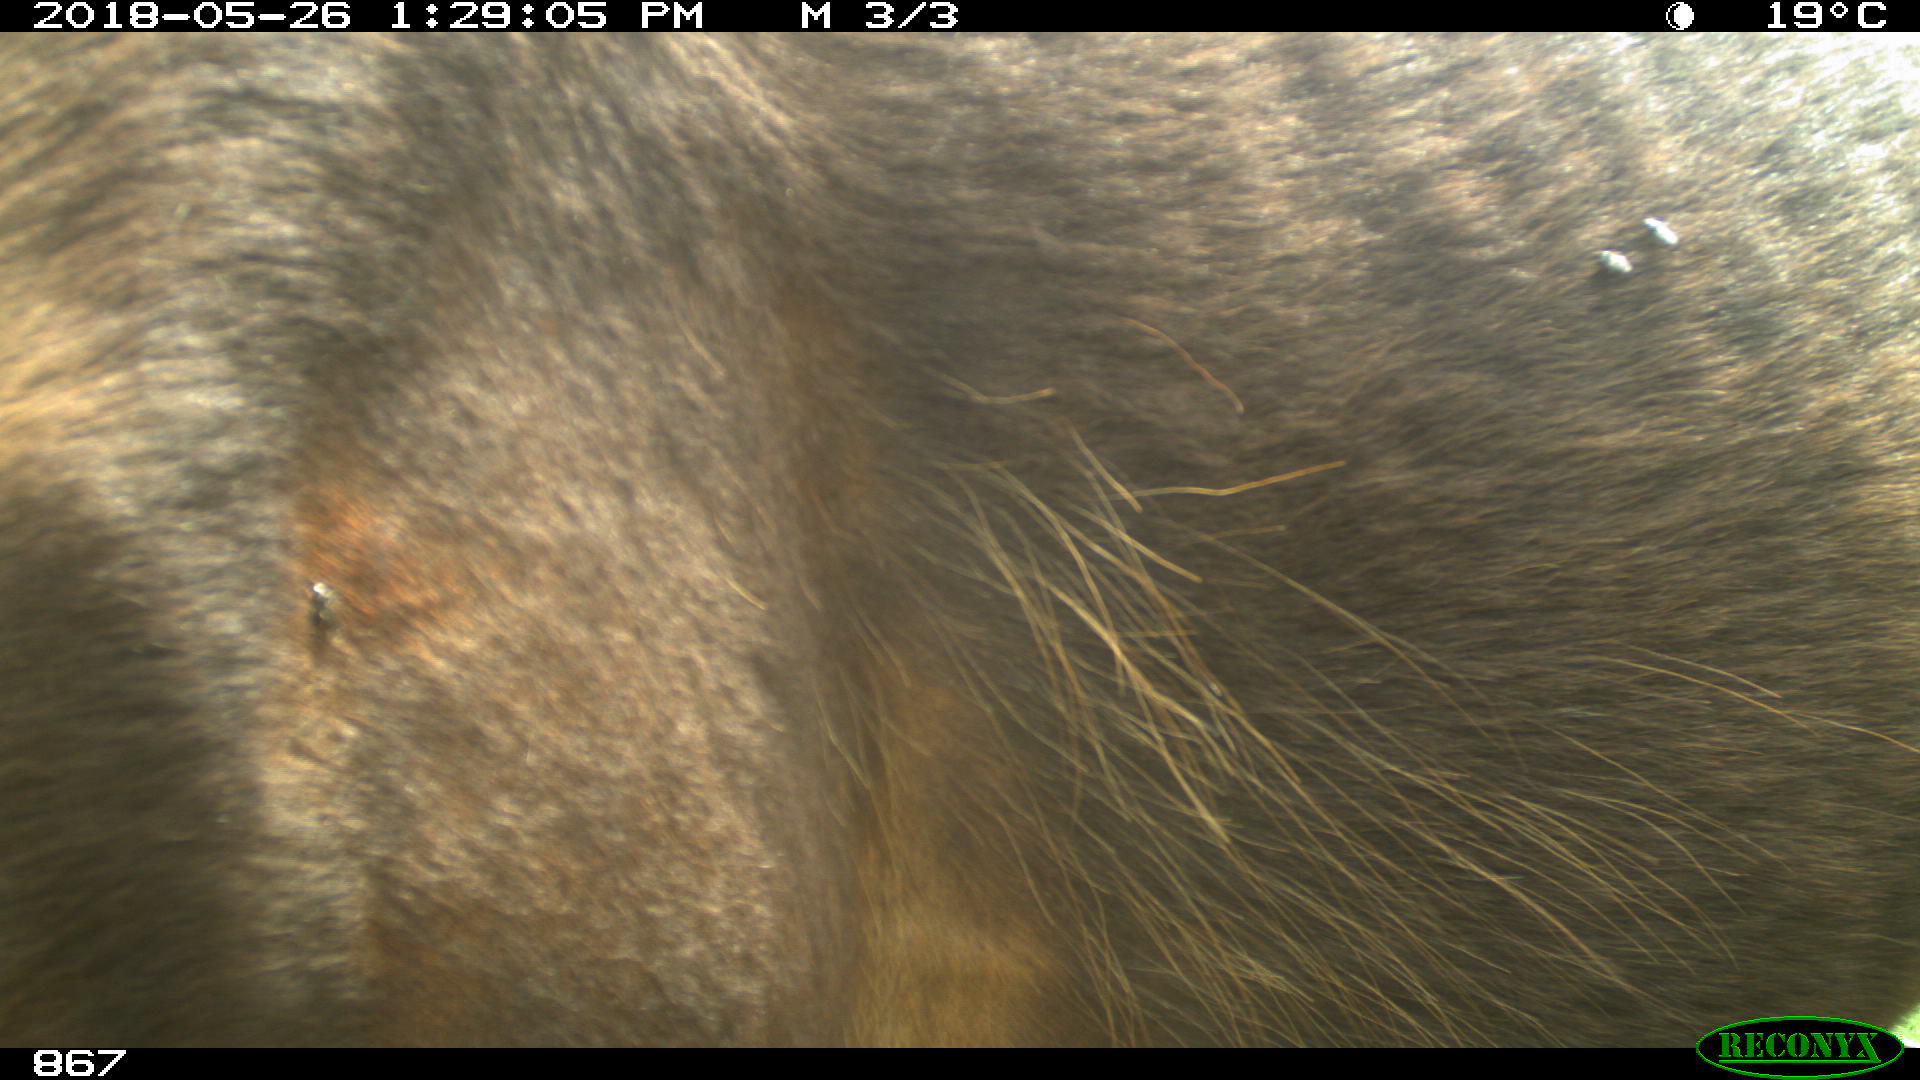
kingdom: Animalia
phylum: Chordata
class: Mammalia
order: Perissodactyla
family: Equidae
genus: Equus
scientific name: Equus caballus
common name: Horse
